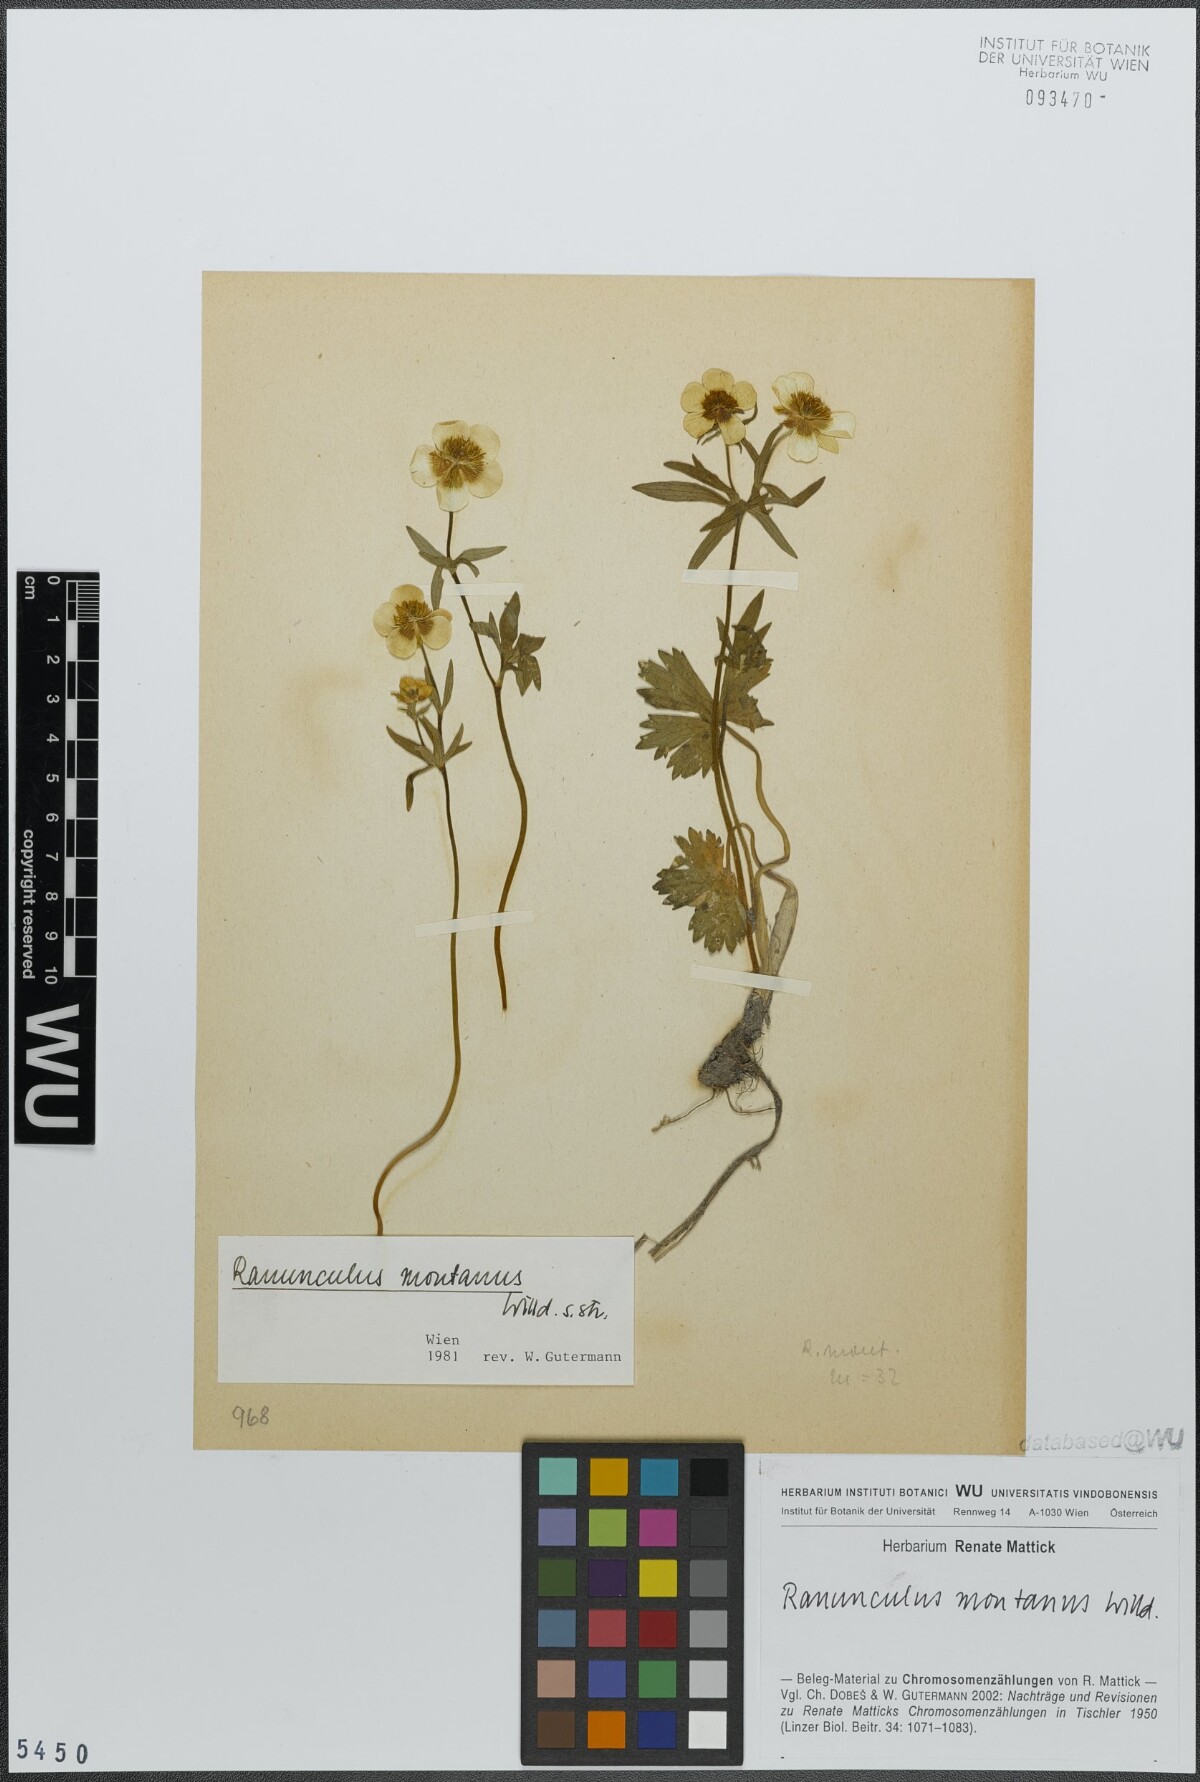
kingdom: Plantae
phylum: Tracheophyta
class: Magnoliopsida
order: Ranunculales
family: Ranunculaceae
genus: Ranunculus
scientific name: Ranunculus montanus
